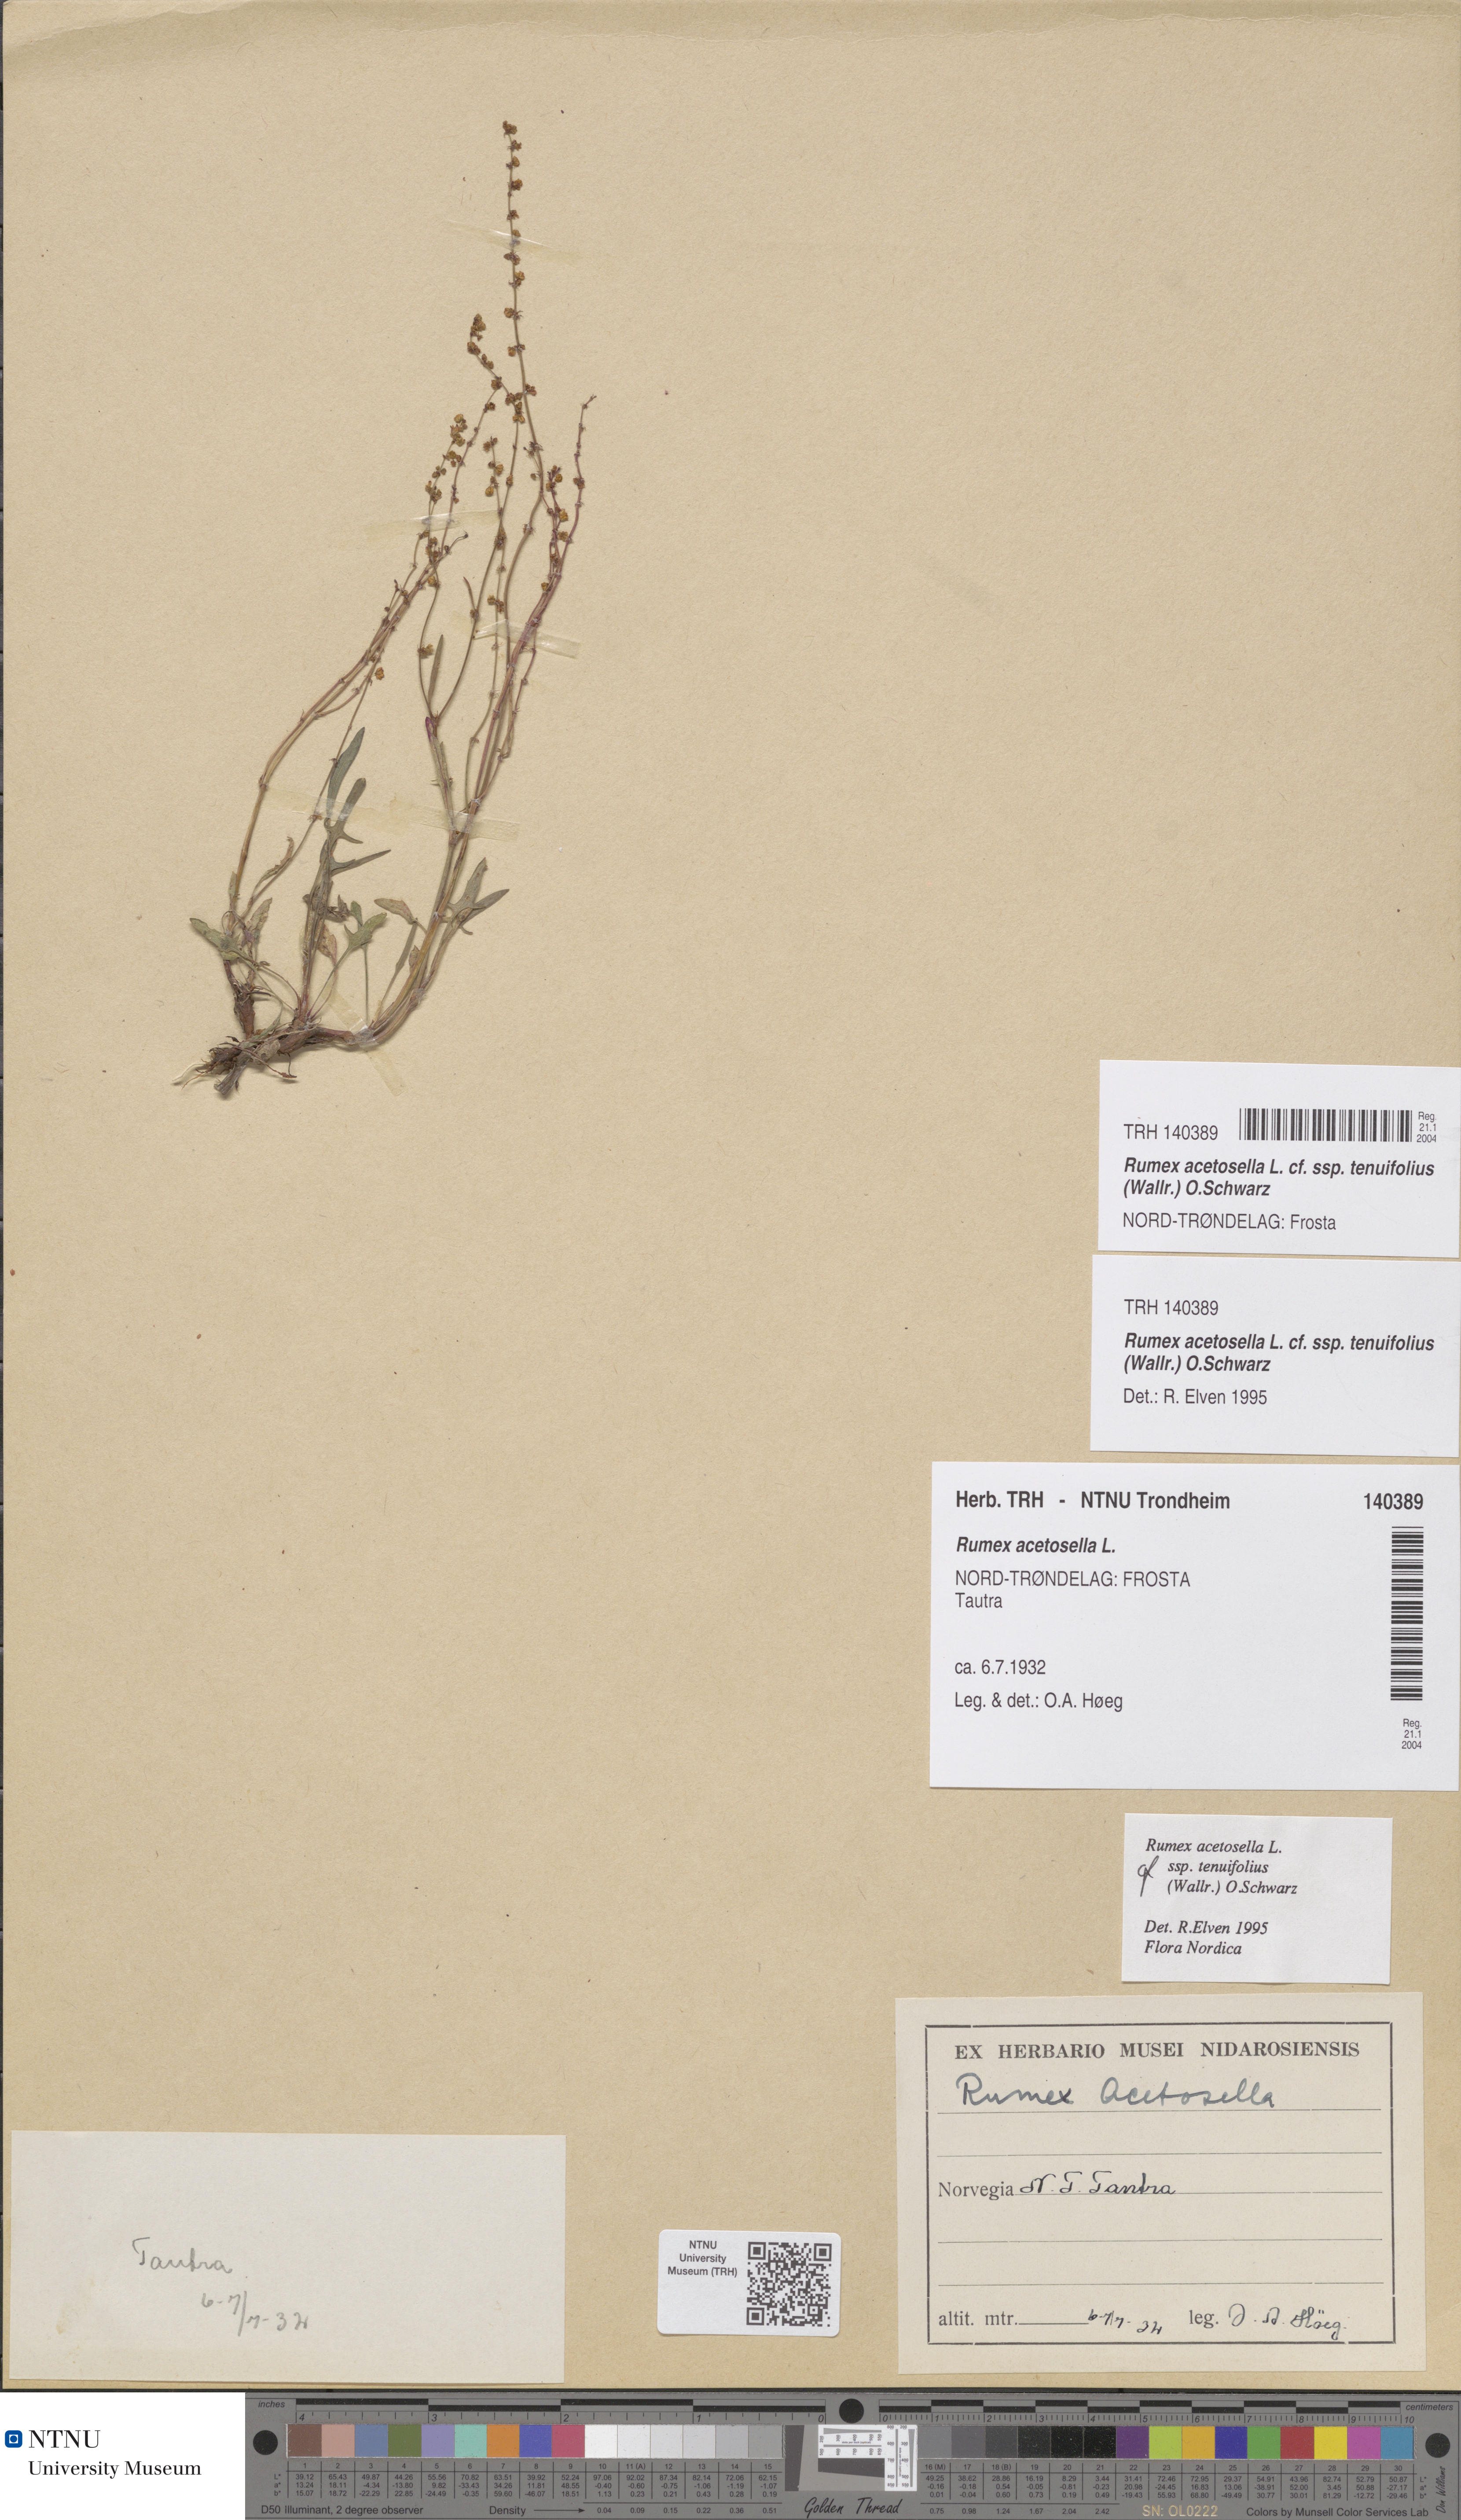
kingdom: Plantae
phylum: Tracheophyta
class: Magnoliopsida
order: Caryophyllales
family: Polygonaceae
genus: Rumex
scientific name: Rumex acetosella
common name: Common sheep sorrel
